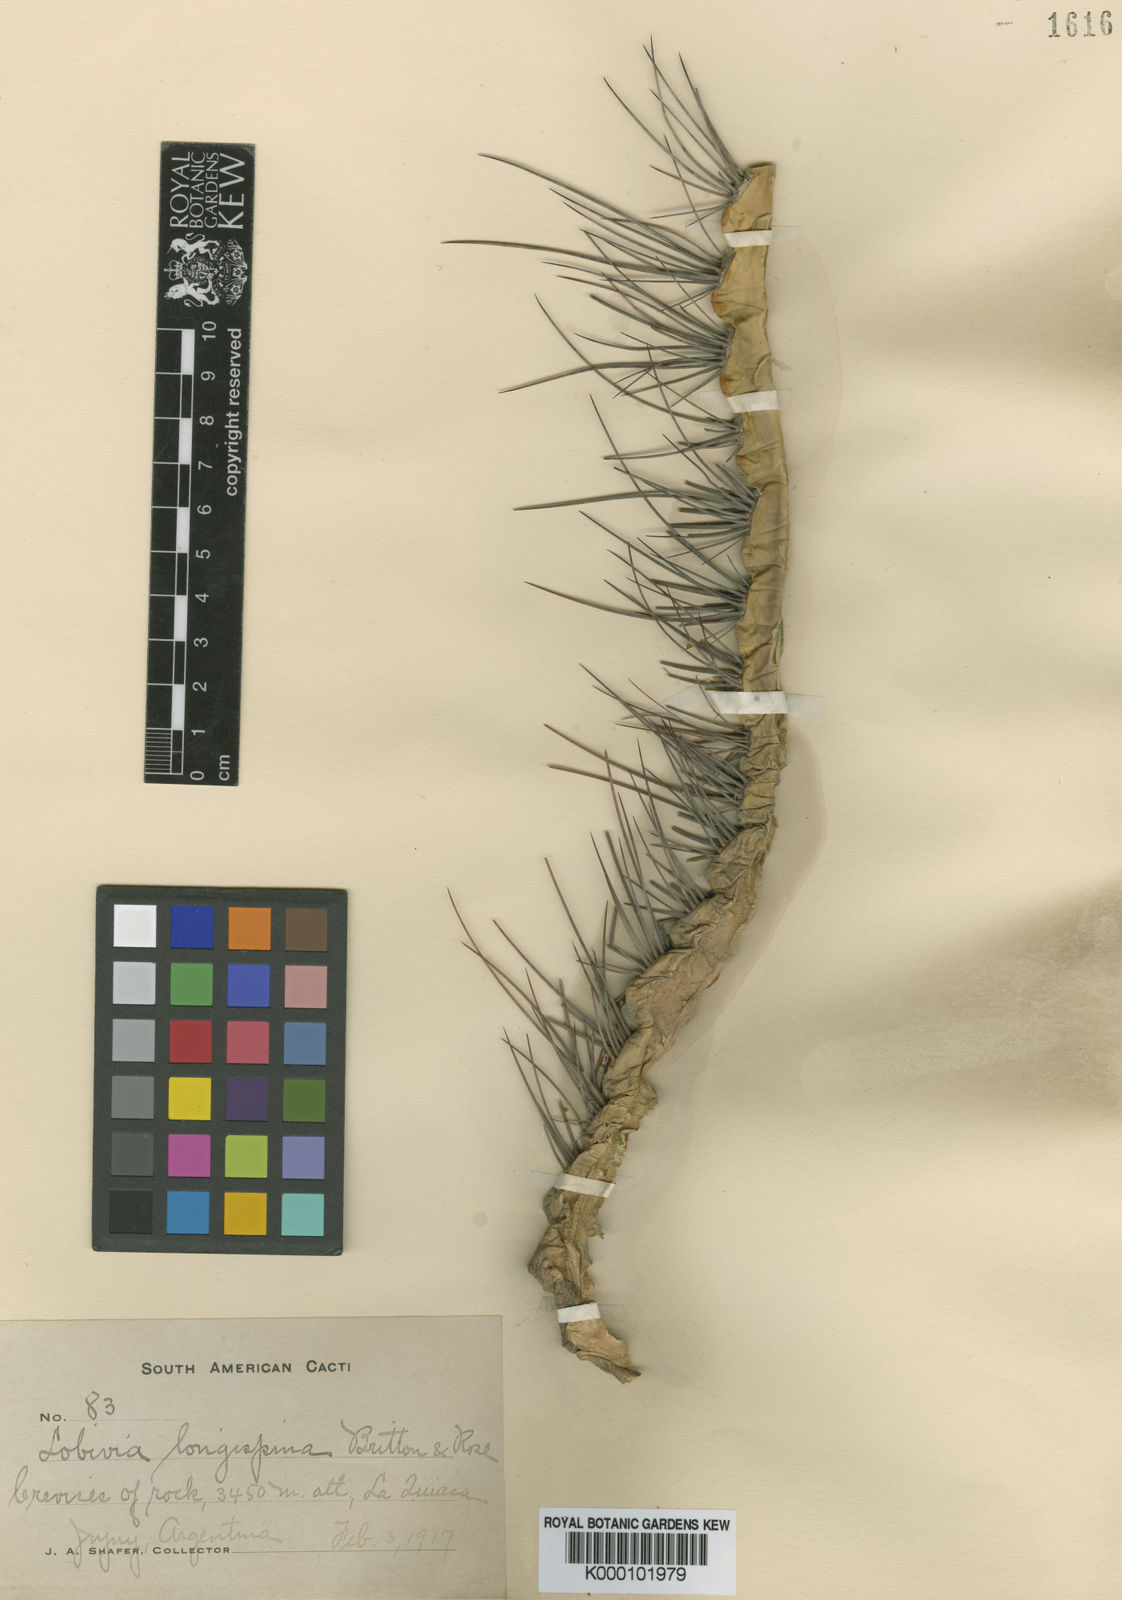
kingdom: Plantae
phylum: Tracheophyta
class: Magnoliopsida
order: Caryophyllales
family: Cactaceae
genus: Lobivia
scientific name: Lobivia ferox
